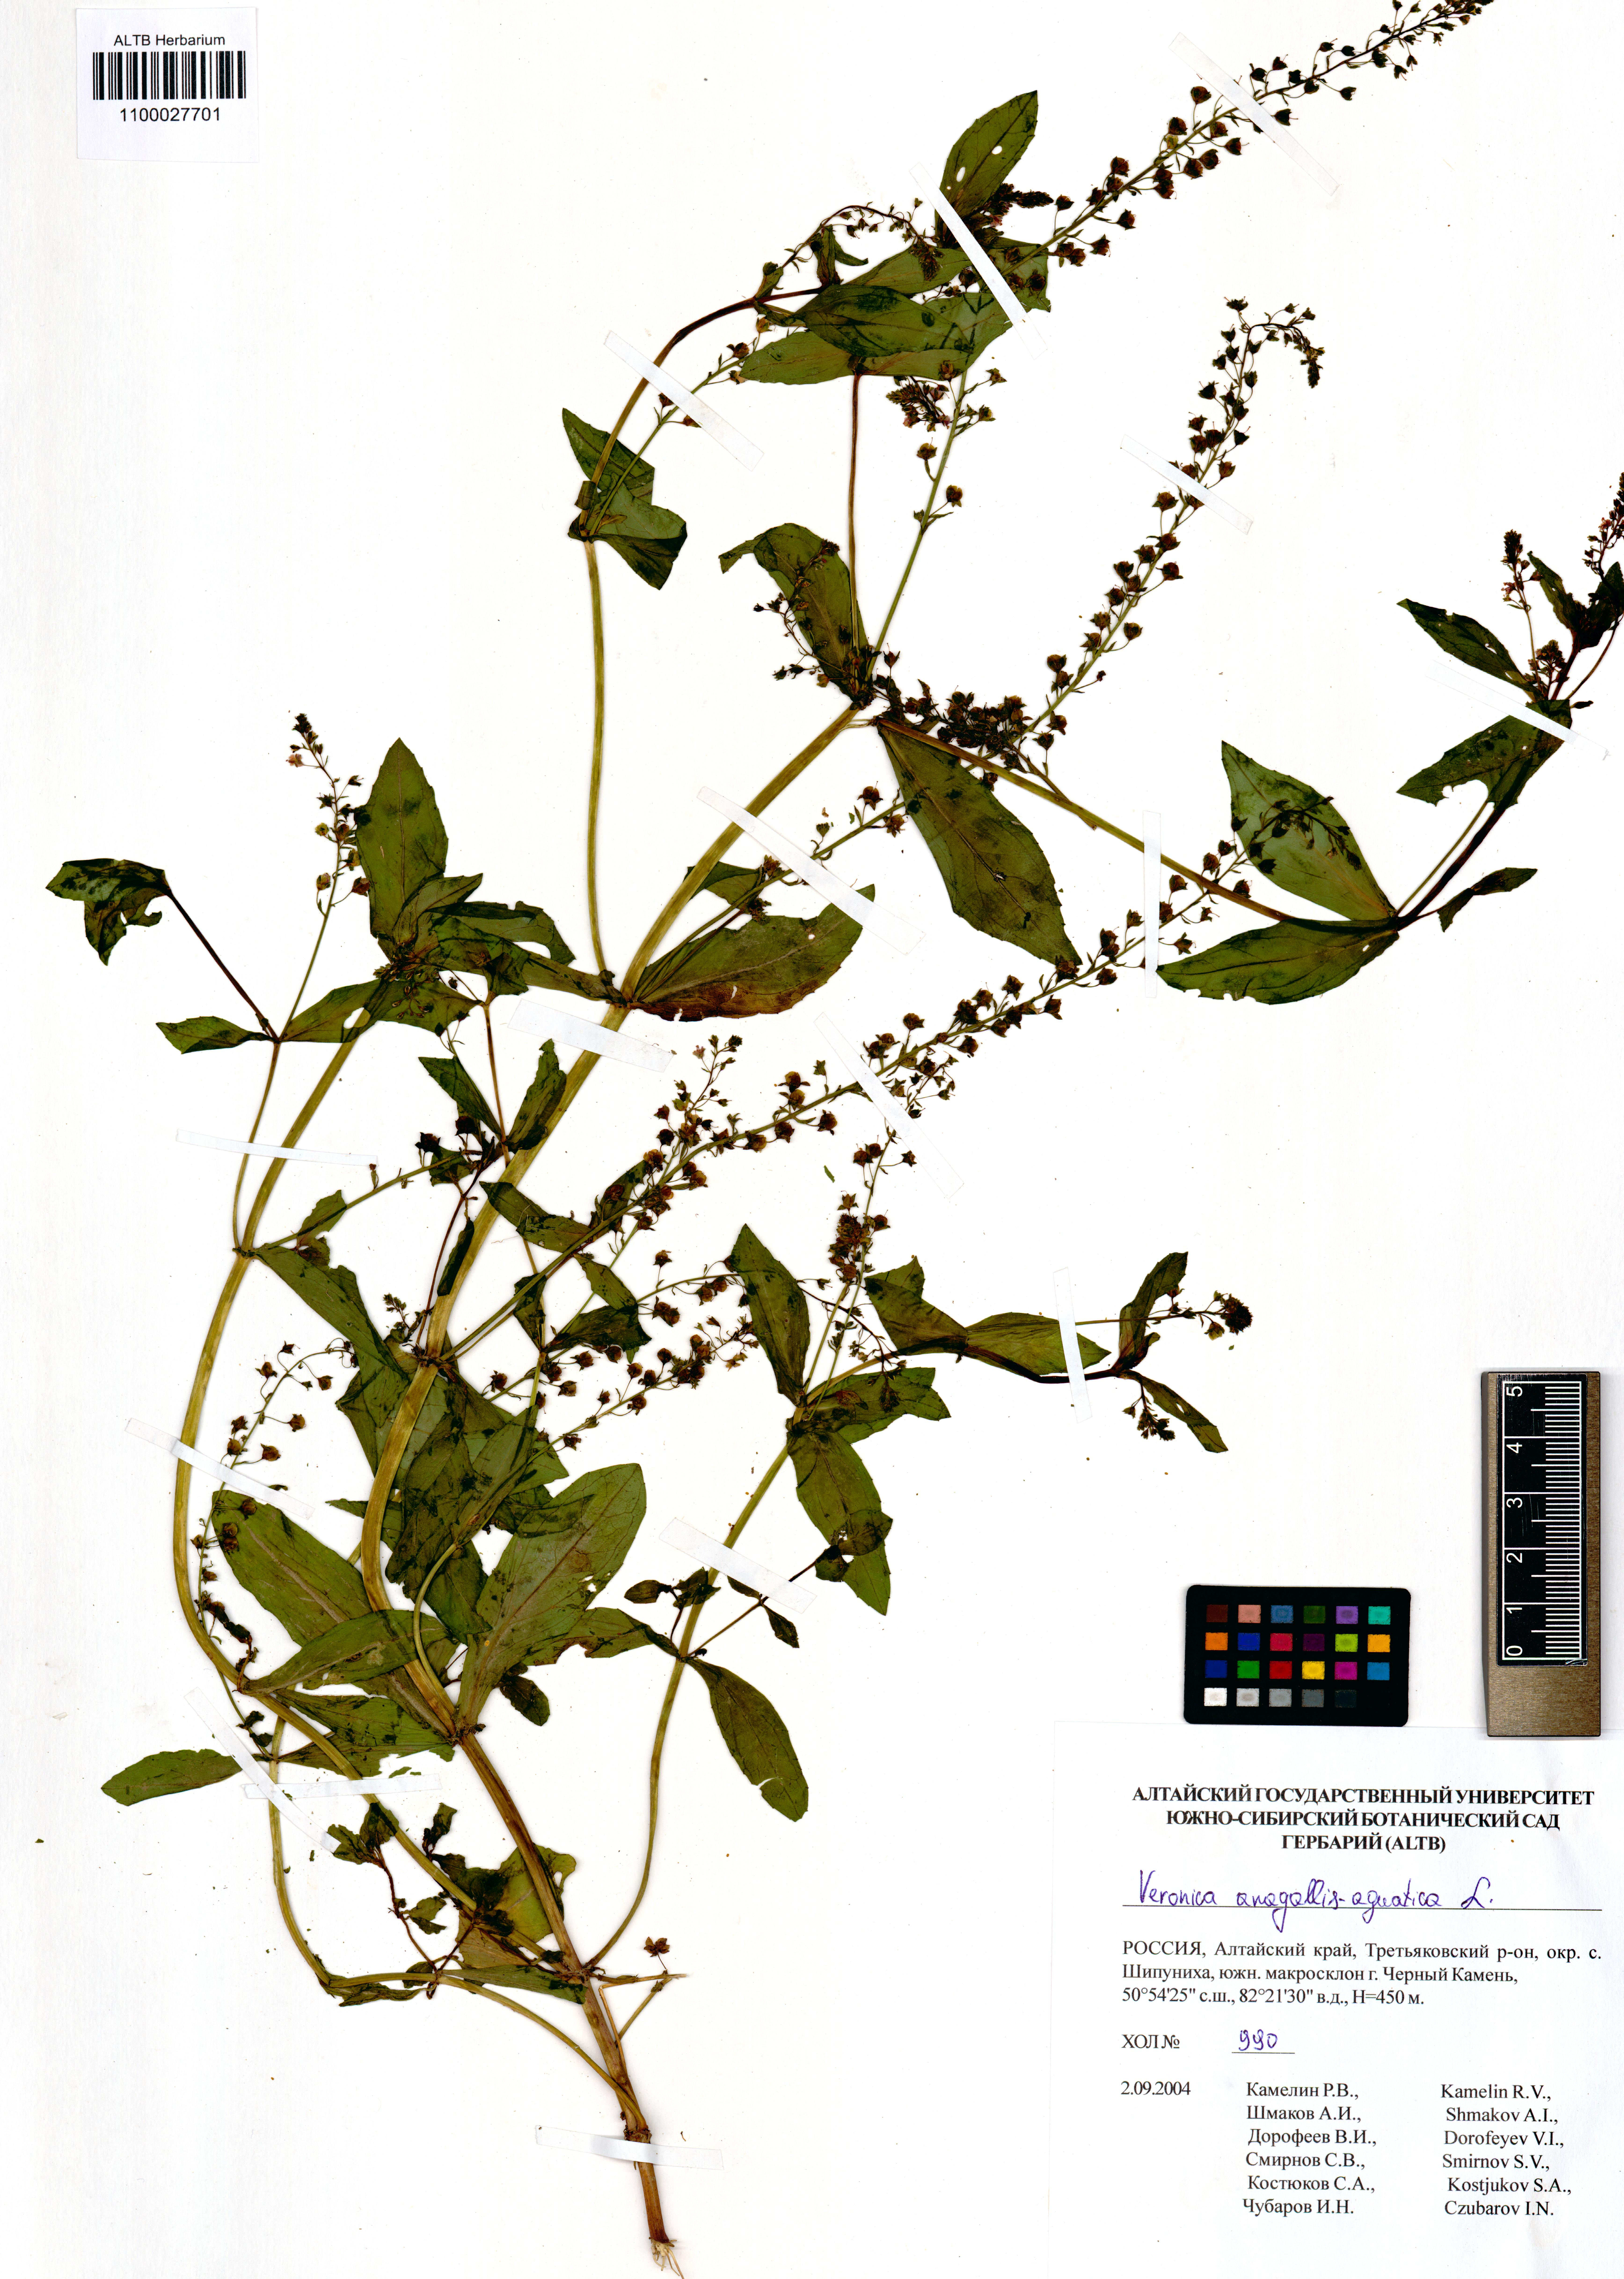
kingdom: Plantae
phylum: Tracheophyta
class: Magnoliopsida
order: Lamiales
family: Plantaginaceae
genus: Veronica
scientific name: Veronica anagallis-aquatica
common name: Water speedwell
